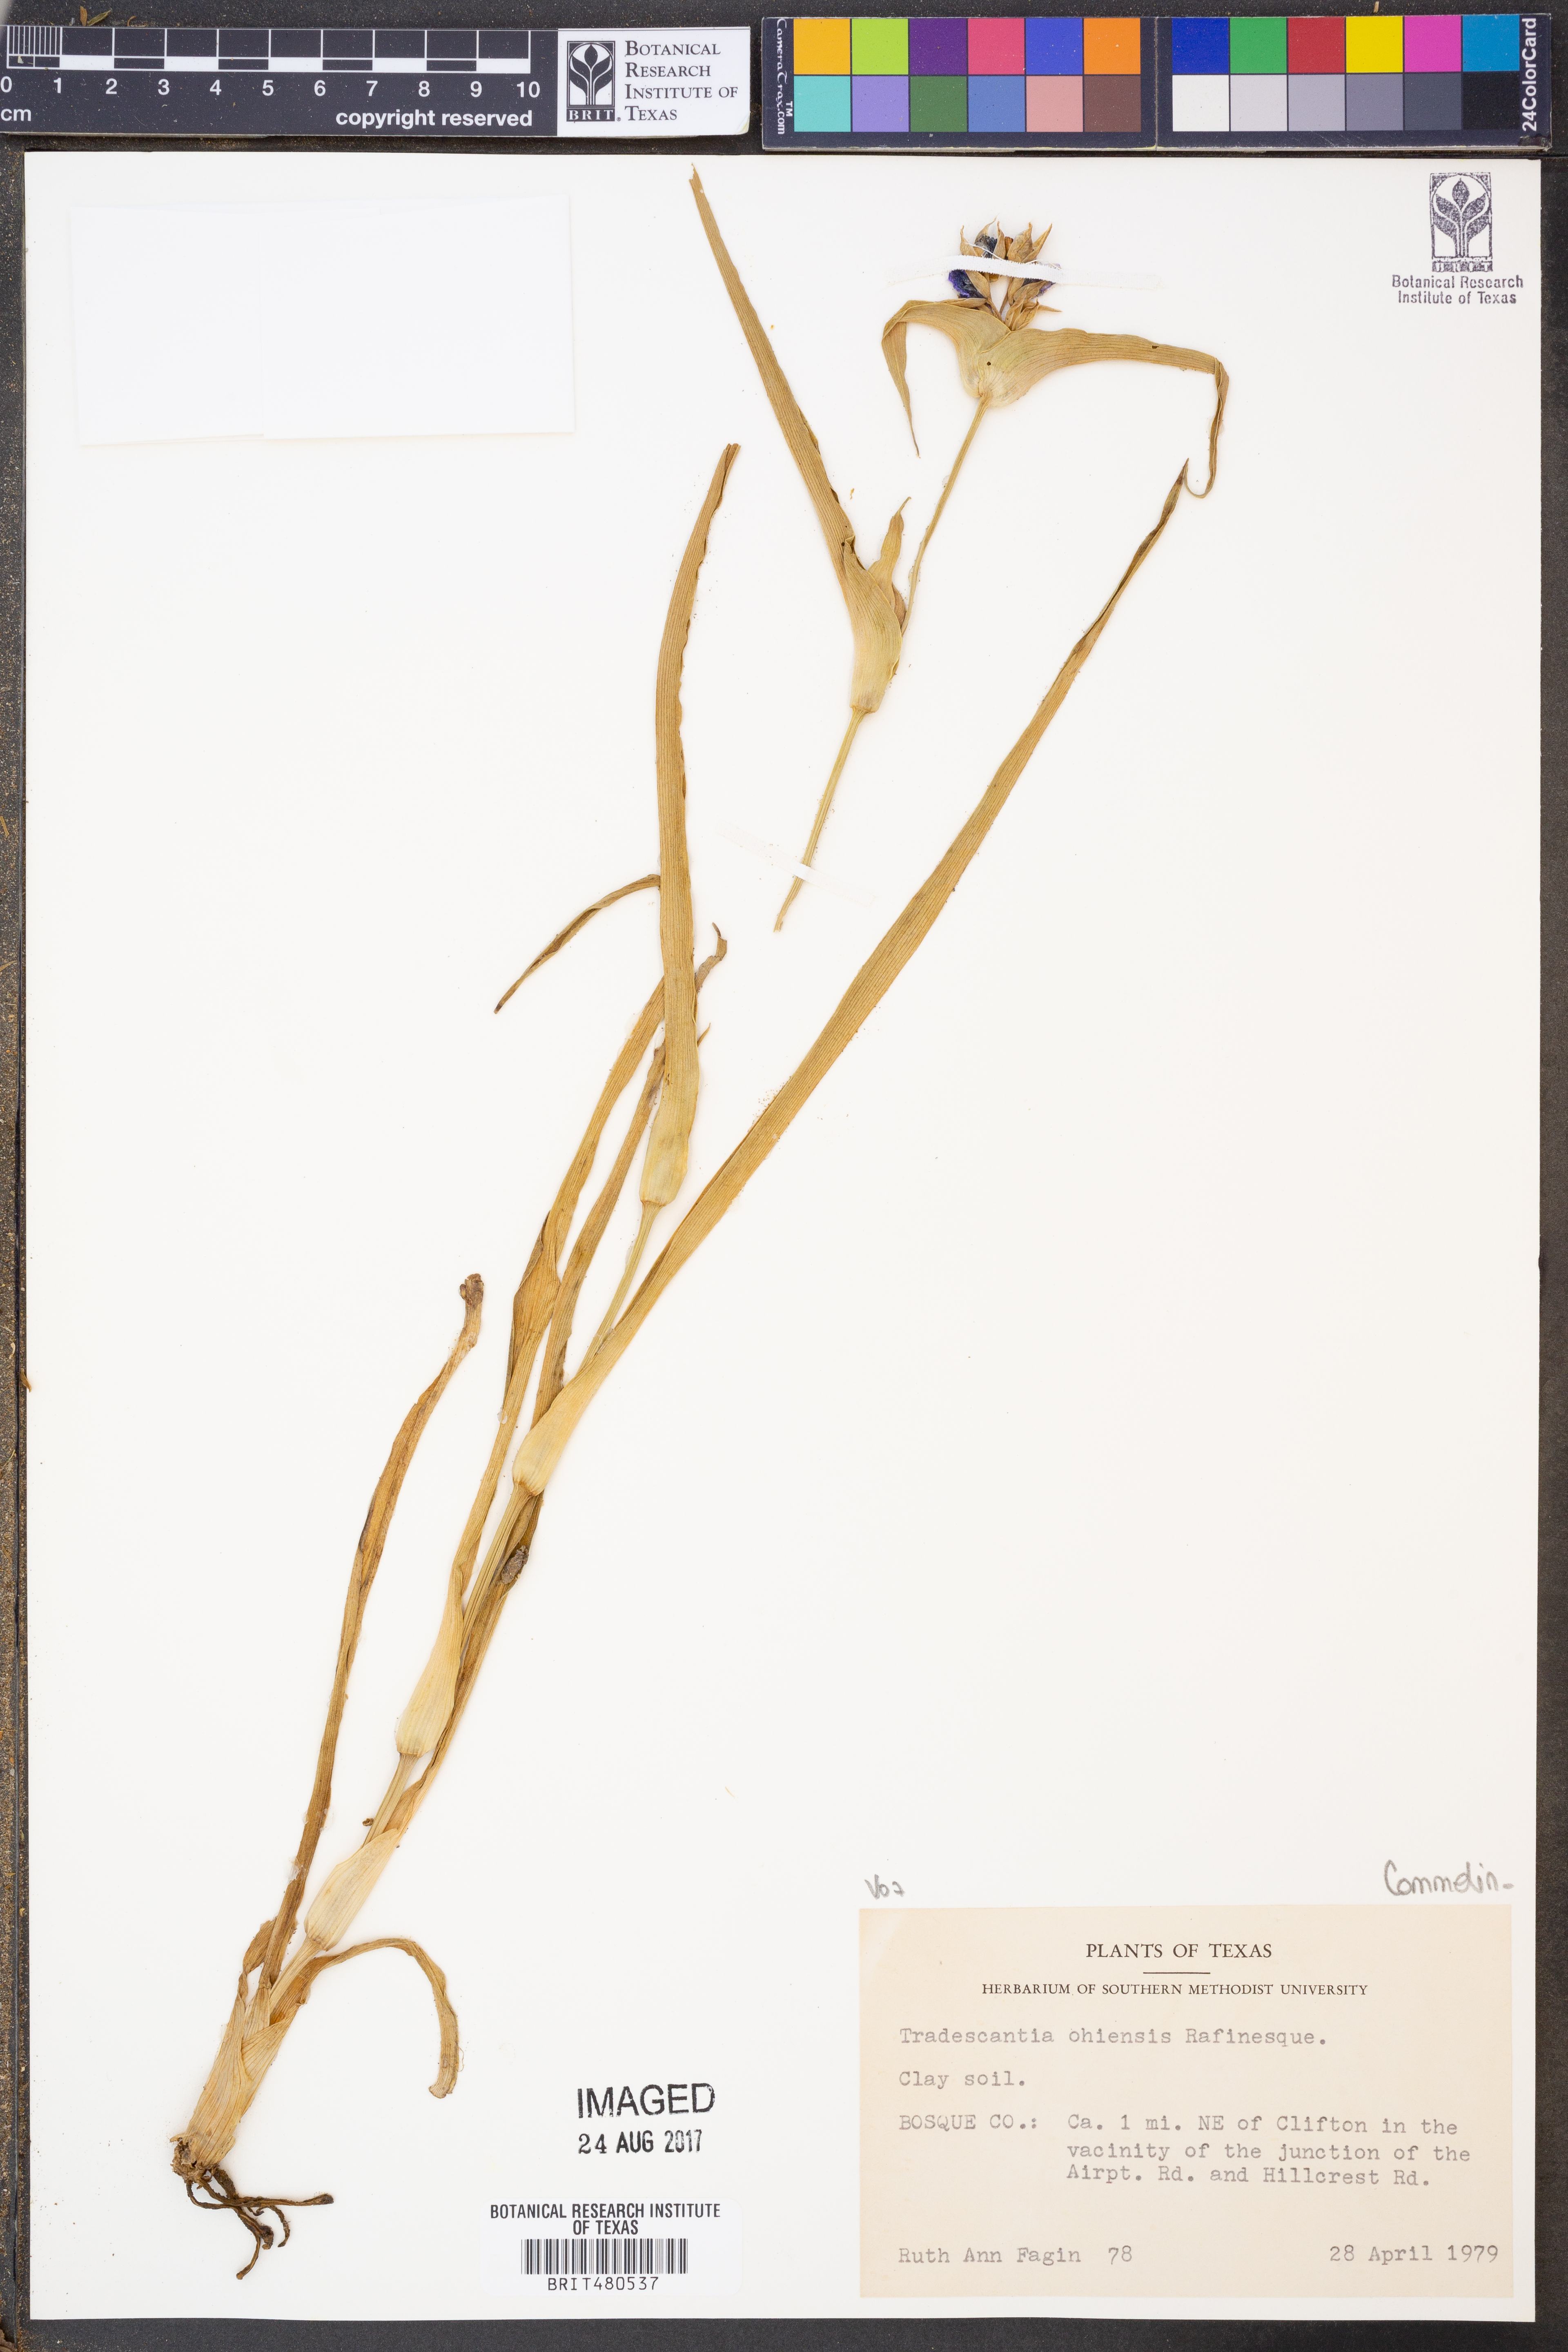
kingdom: Plantae
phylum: Tracheophyta
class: Liliopsida
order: Commelinales
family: Commelinaceae
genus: Tradescantia
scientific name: Tradescantia ohiensis
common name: Ohio spiderwort
